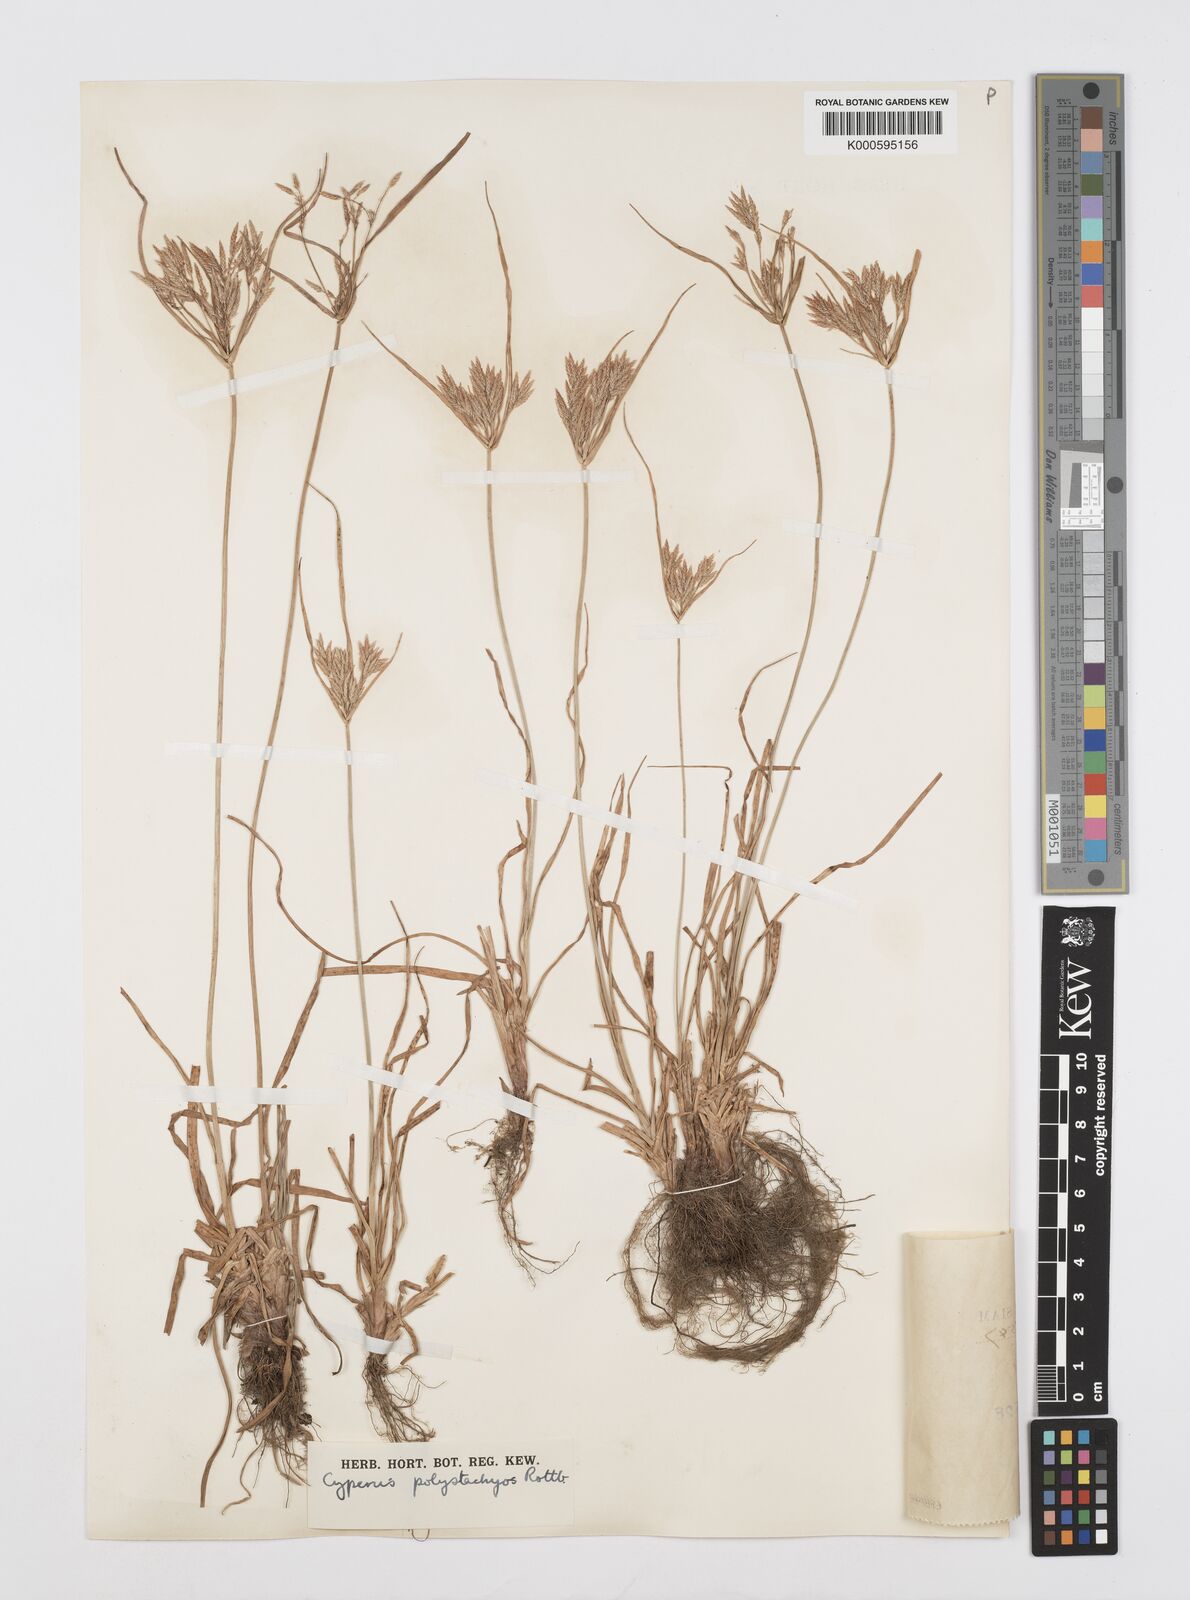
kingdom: Plantae
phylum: Tracheophyta
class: Liliopsida
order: Poales
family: Cyperaceae
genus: Cyperus
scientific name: Cyperus polystachyos
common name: Bunchy flat sedge
